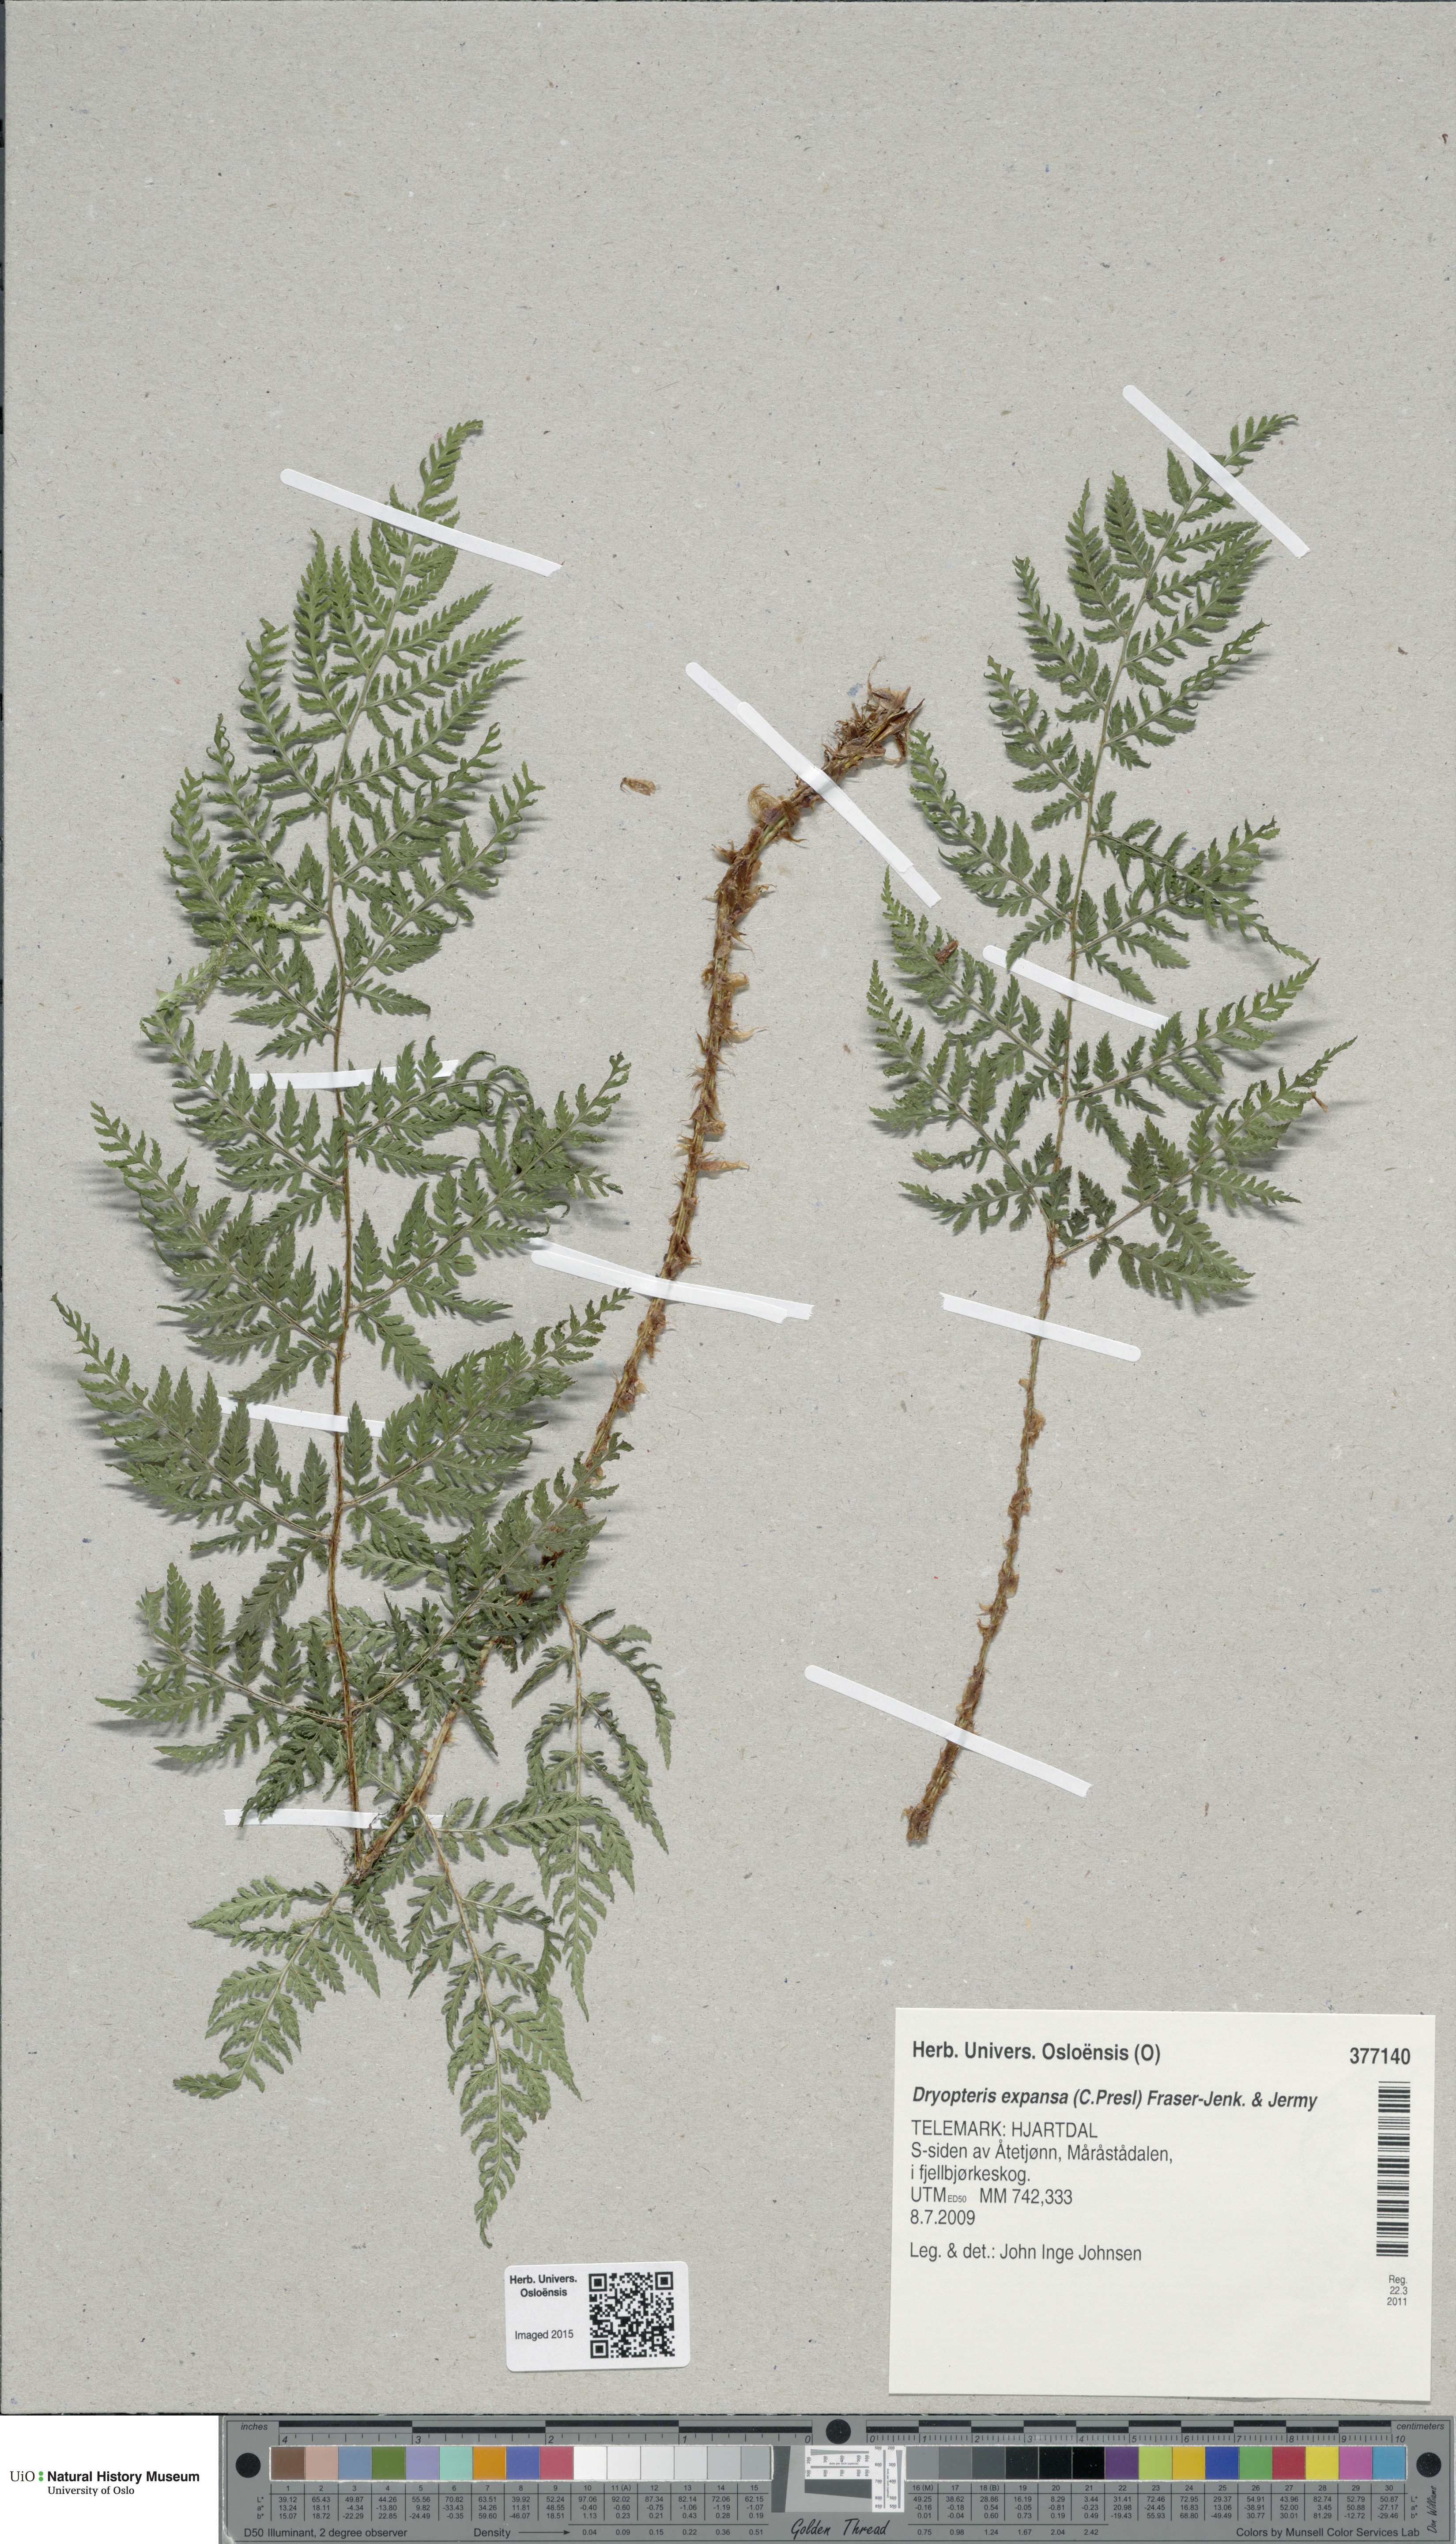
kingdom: Plantae
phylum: Tracheophyta
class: Polypodiopsida
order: Polypodiales
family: Dryopteridaceae
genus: Dryopteris
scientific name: Dryopteris expansa
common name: Northern buckler fern
